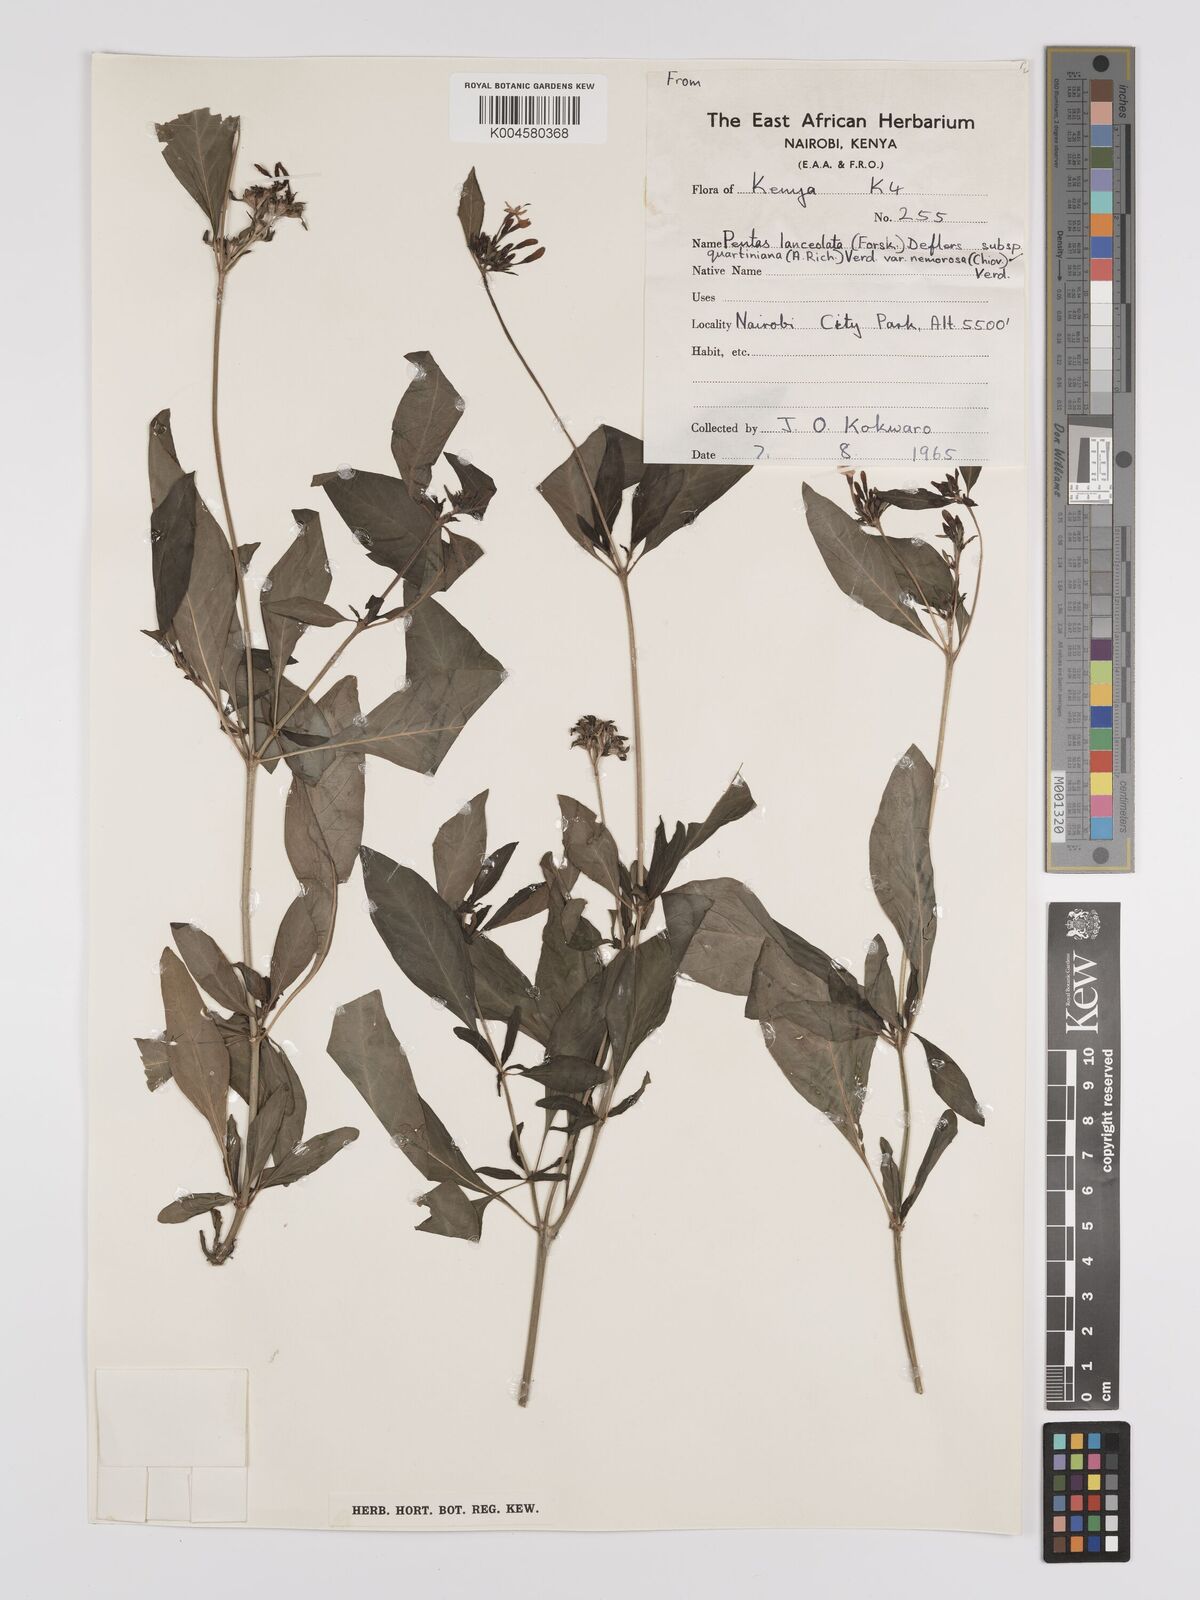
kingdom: Plantae
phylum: Tracheophyta
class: Magnoliopsida
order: Gentianales
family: Rubiaceae
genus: Pentas
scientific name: Pentas lanceolata
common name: Egyptian starcluster
